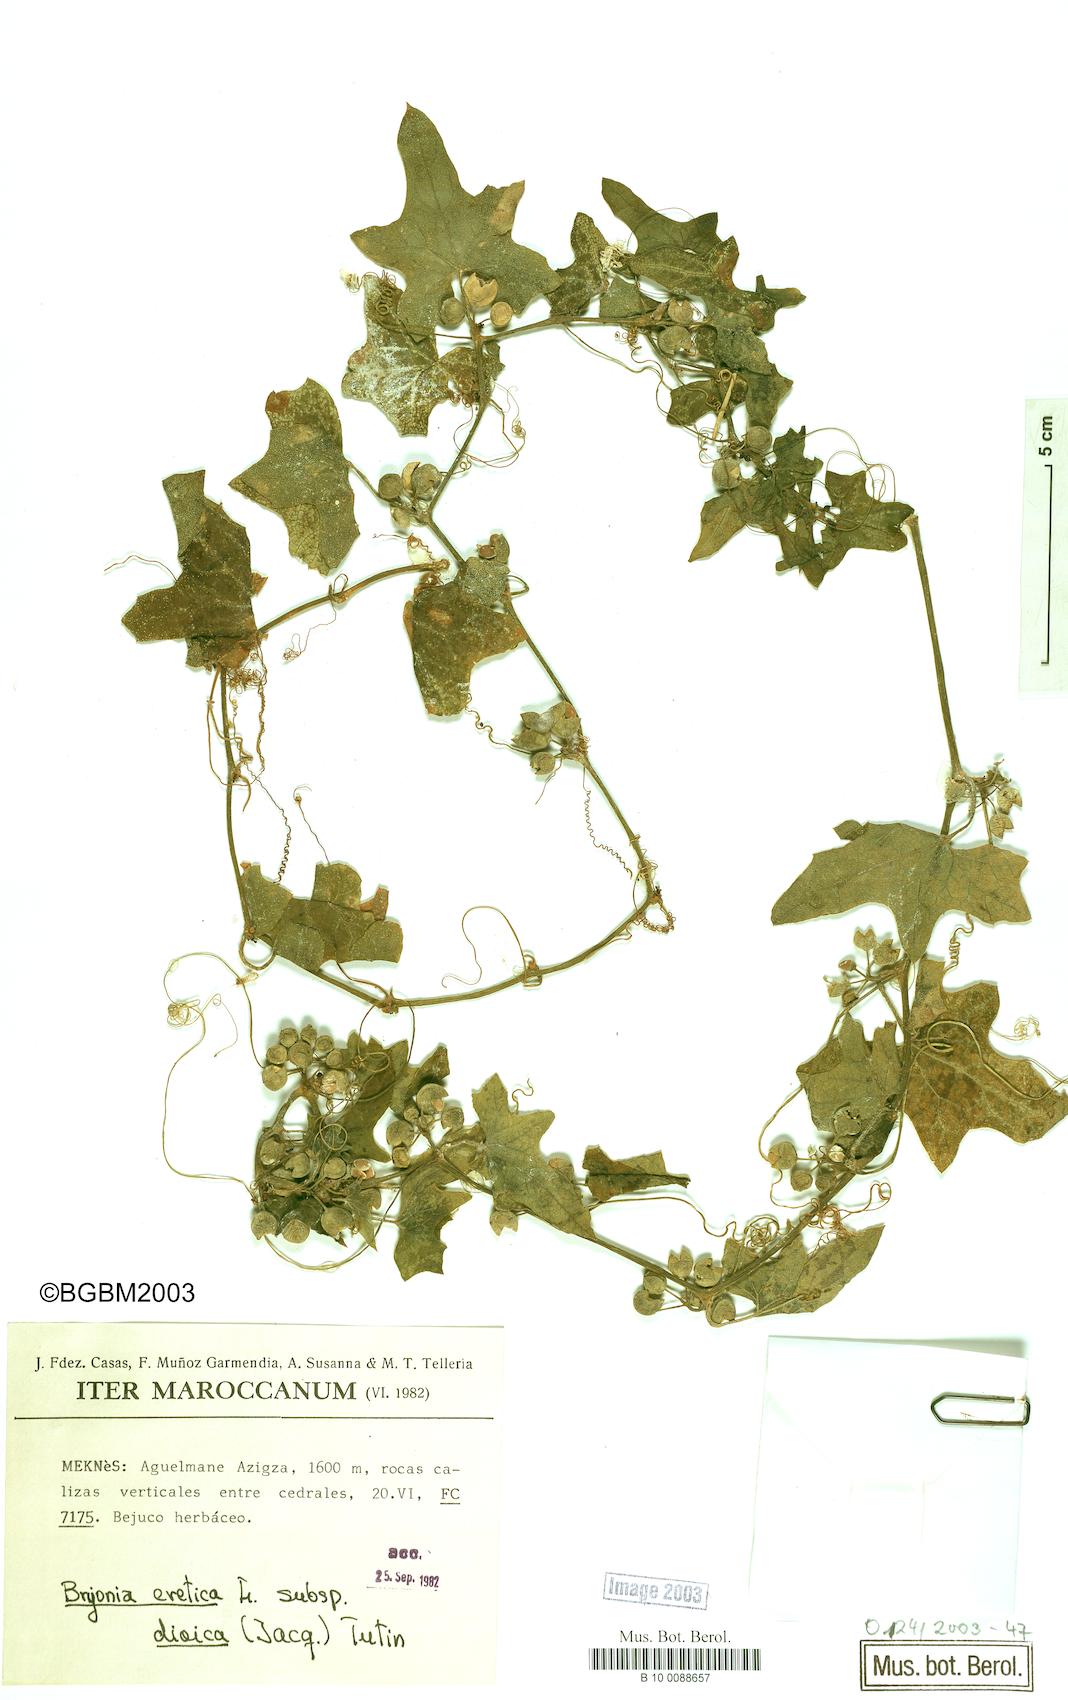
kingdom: Plantae
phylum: Tracheophyta
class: Magnoliopsida
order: Cucurbitales
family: Cucurbitaceae
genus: Bryonia
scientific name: Bryonia dioica
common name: White bryony
